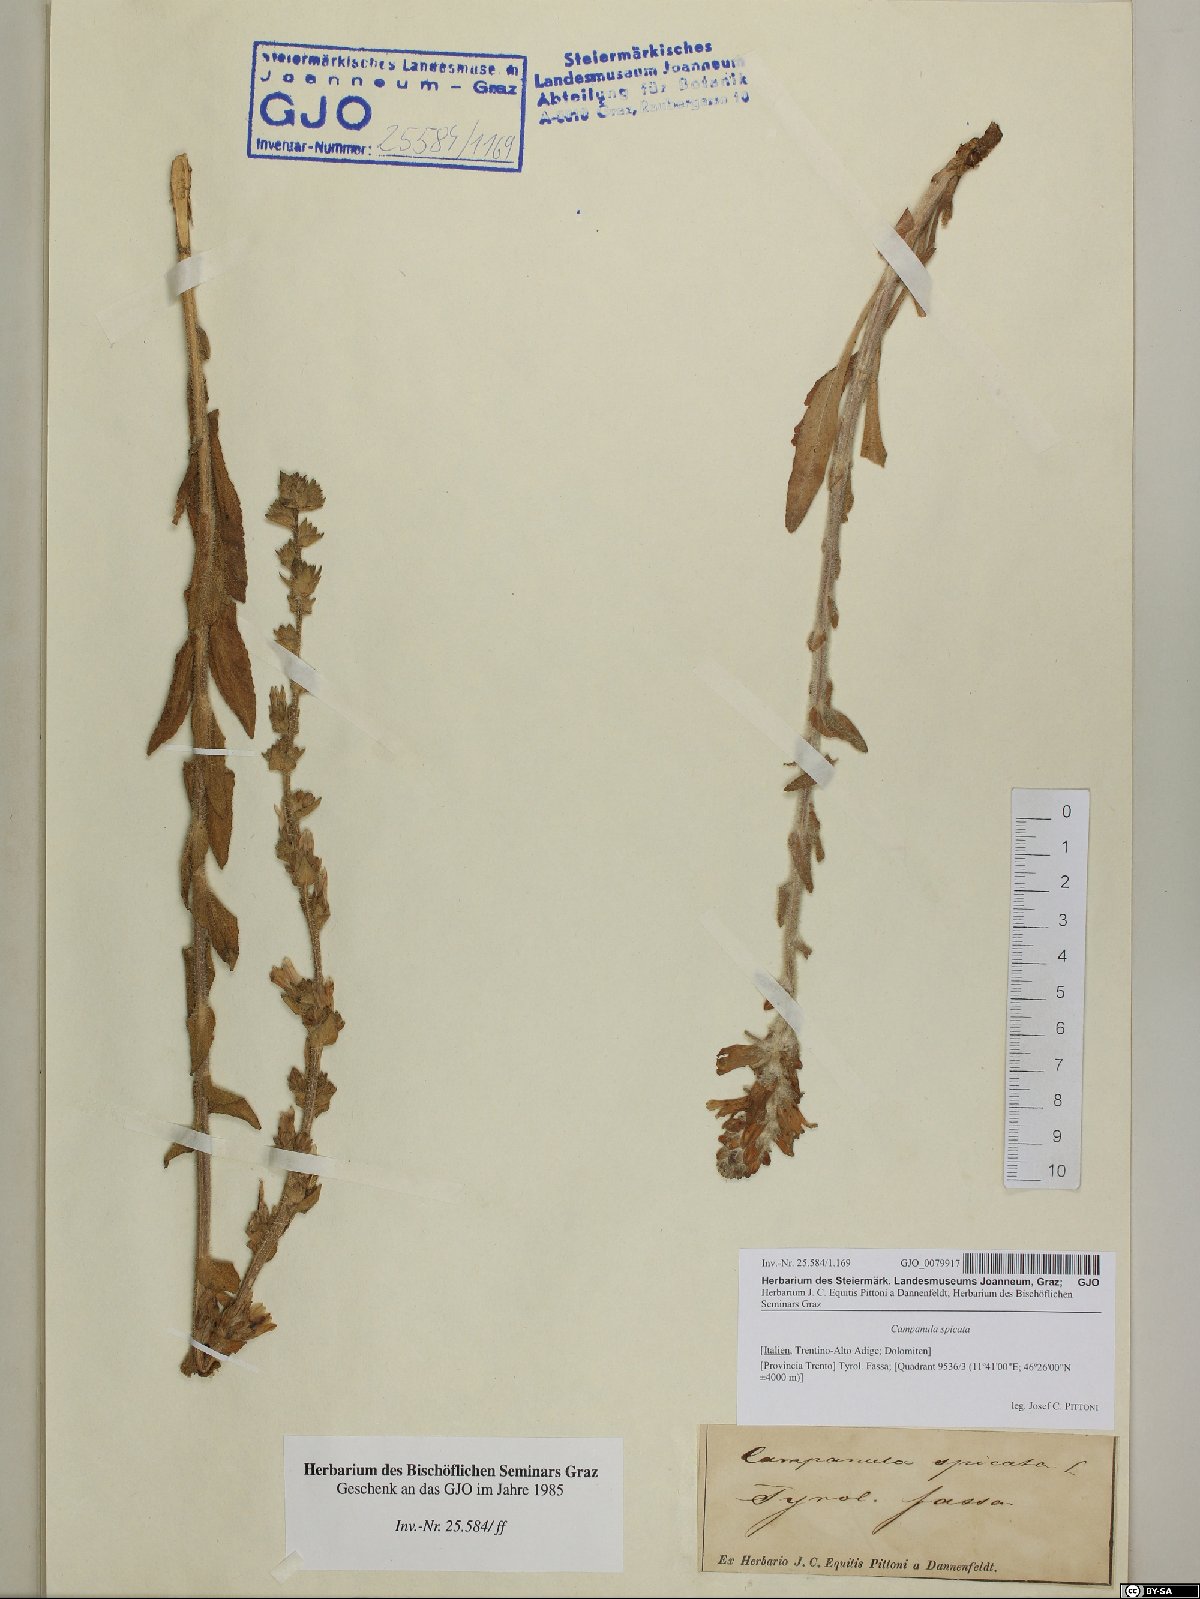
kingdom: Plantae
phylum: Tracheophyta
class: Magnoliopsida
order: Asterales
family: Campanulaceae
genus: Campanula
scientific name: Campanula spicata
